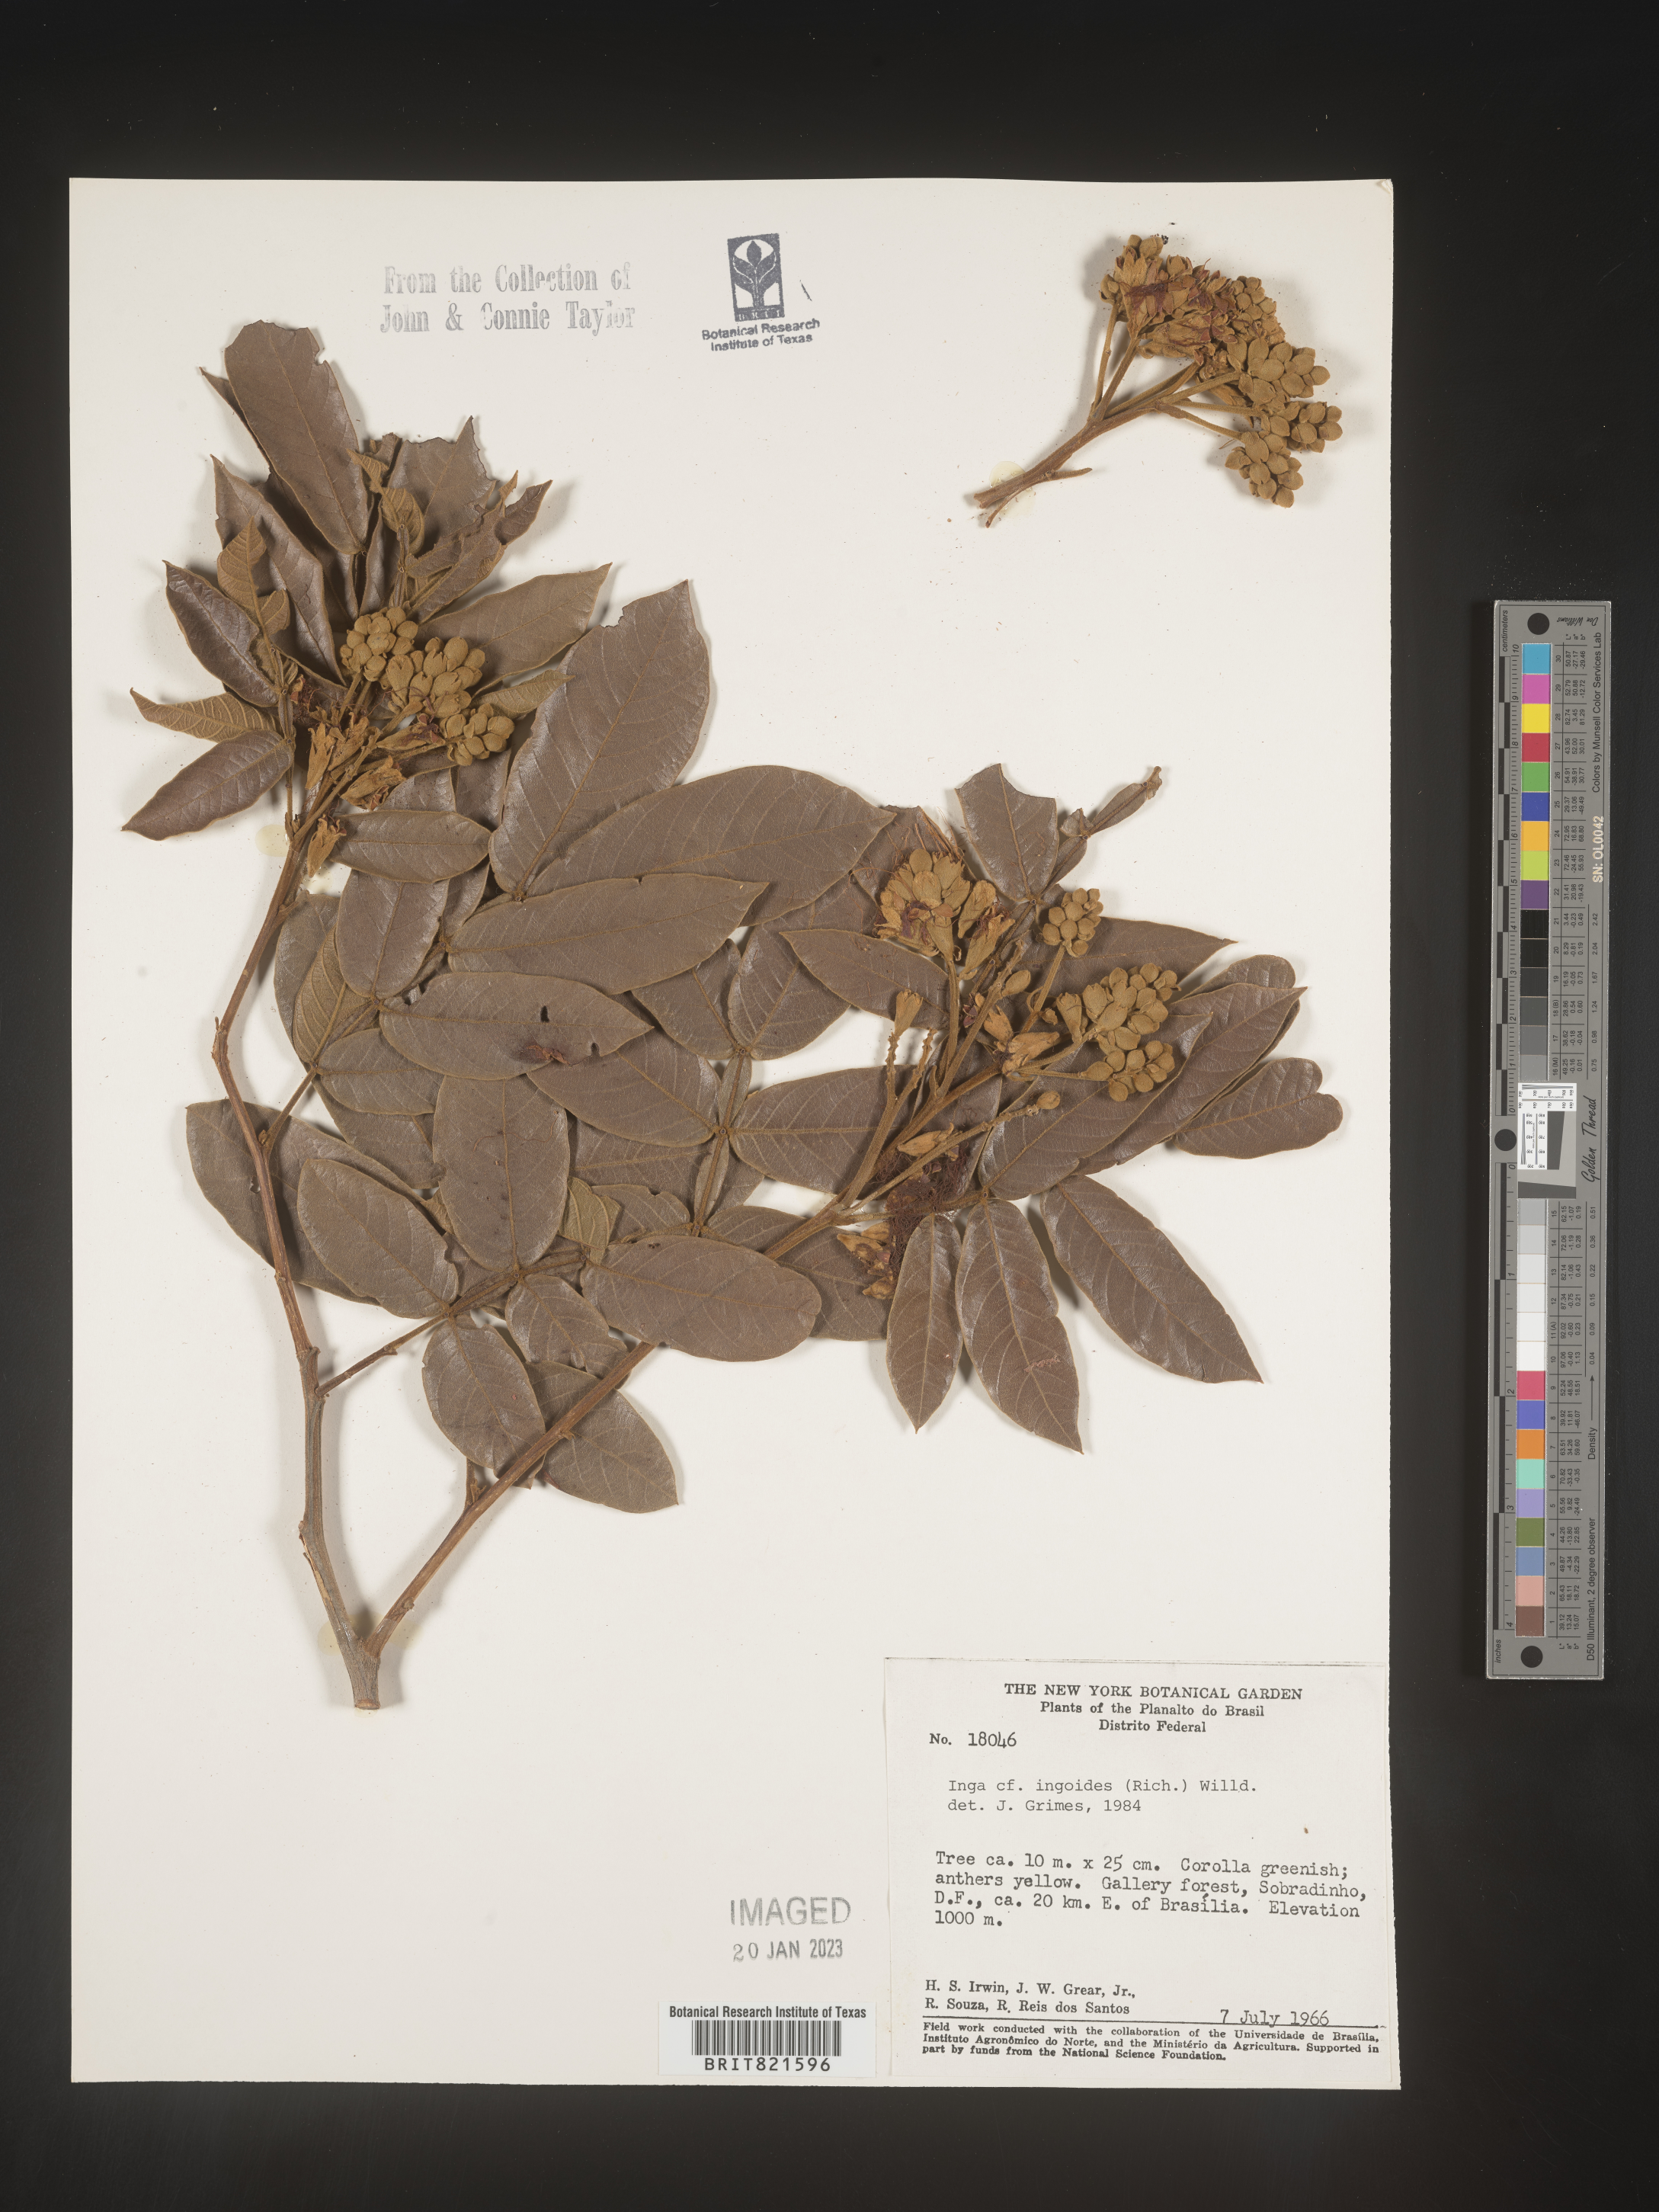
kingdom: Plantae
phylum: Tracheophyta
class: Magnoliopsida
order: Fabales
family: Fabaceae
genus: Inga
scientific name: Inga
